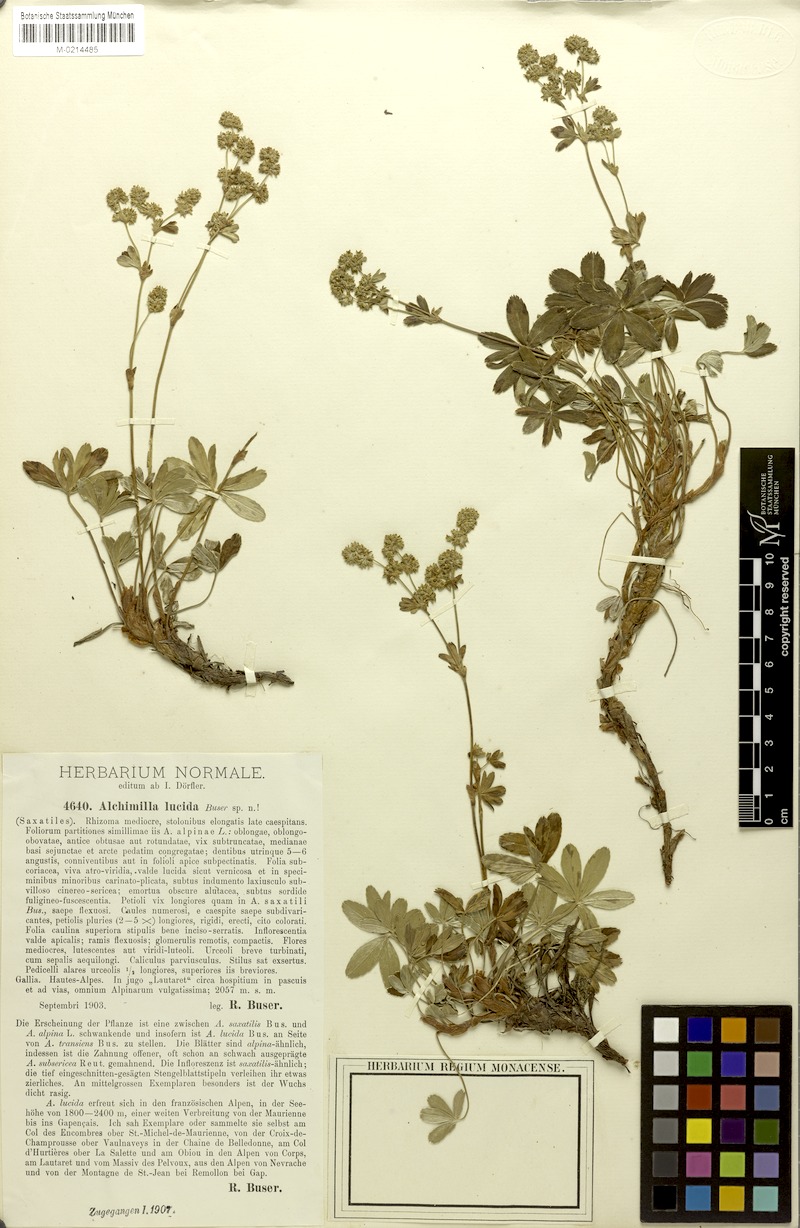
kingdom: Plantae
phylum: Tracheophyta
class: Magnoliopsida
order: Rosales
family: Rosaceae
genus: Alchemilla
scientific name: Alchemilla lucida
